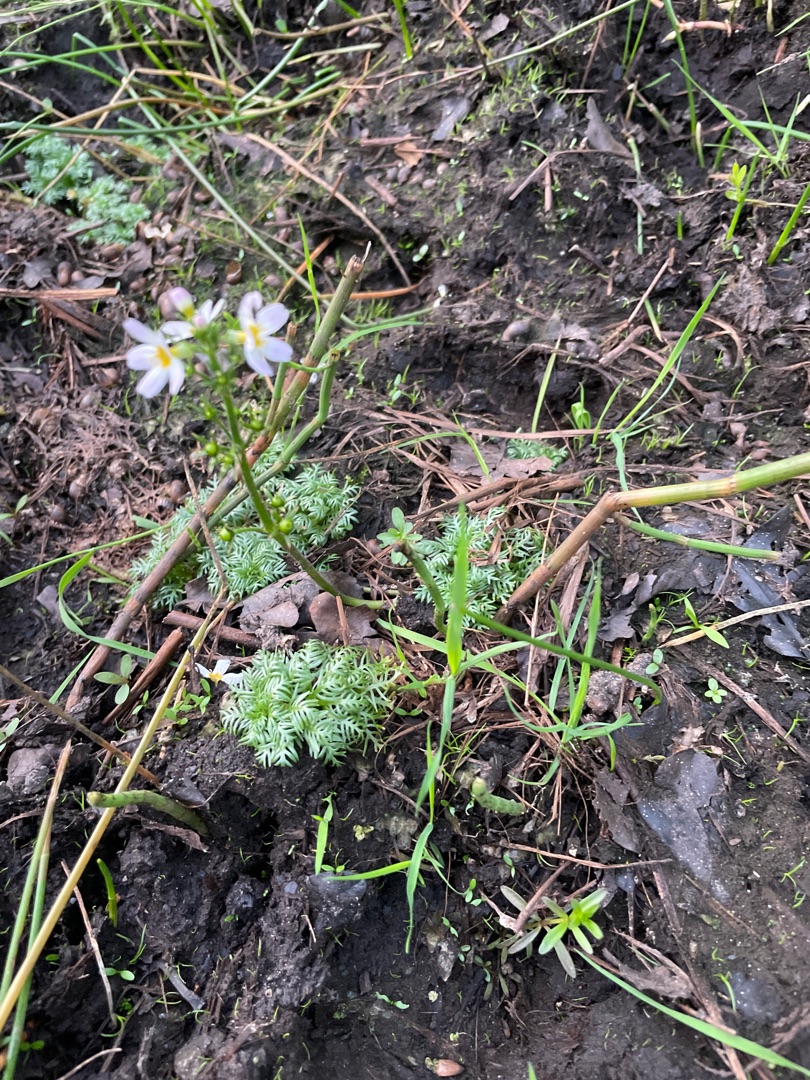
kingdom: Plantae
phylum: Tracheophyta
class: Magnoliopsida
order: Ericales
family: Primulaceae
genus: Hottonia
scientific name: Hottonia palustris
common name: Vandrøllike
